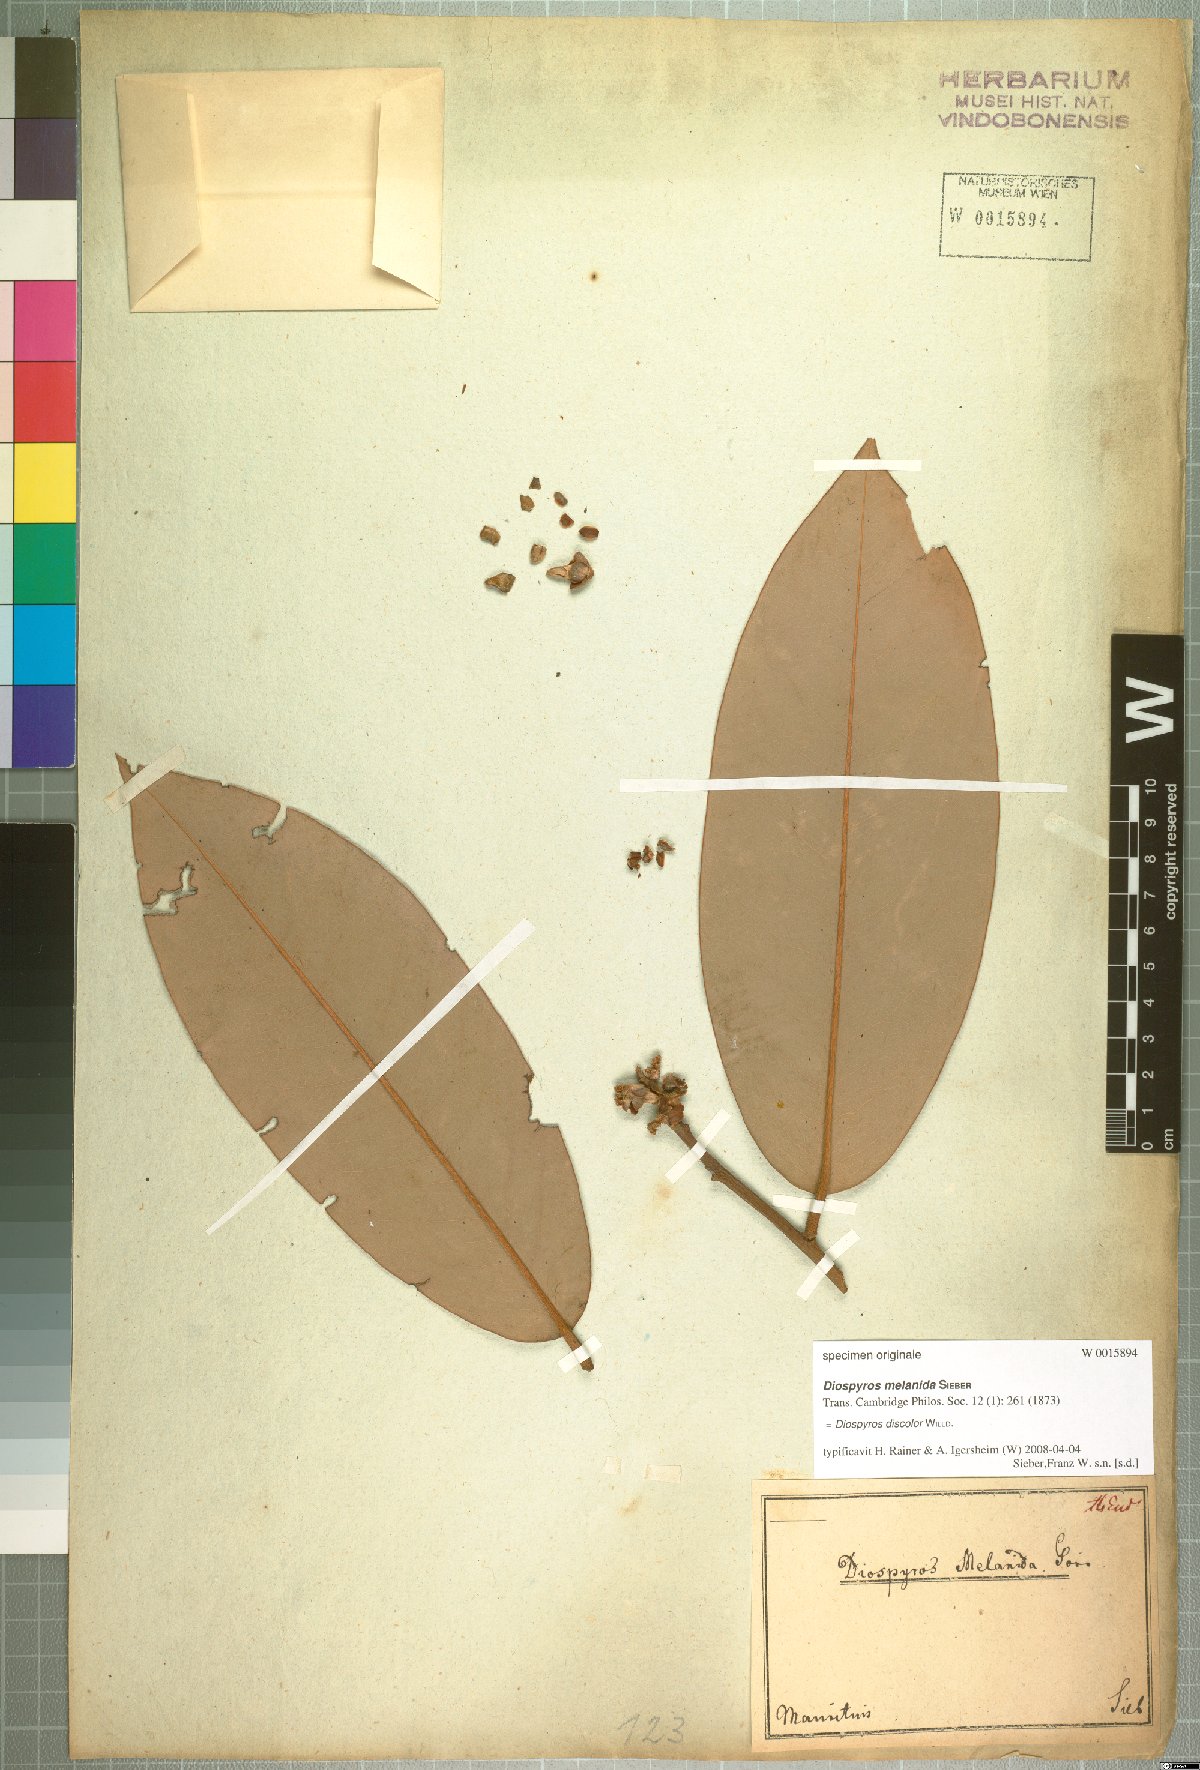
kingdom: Plantae
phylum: Tracheophyta
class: Magnoliopsida
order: Ericales
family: Ebenaceae
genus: Diospyros
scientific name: Diospyros blancoi
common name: Mabola-tree
